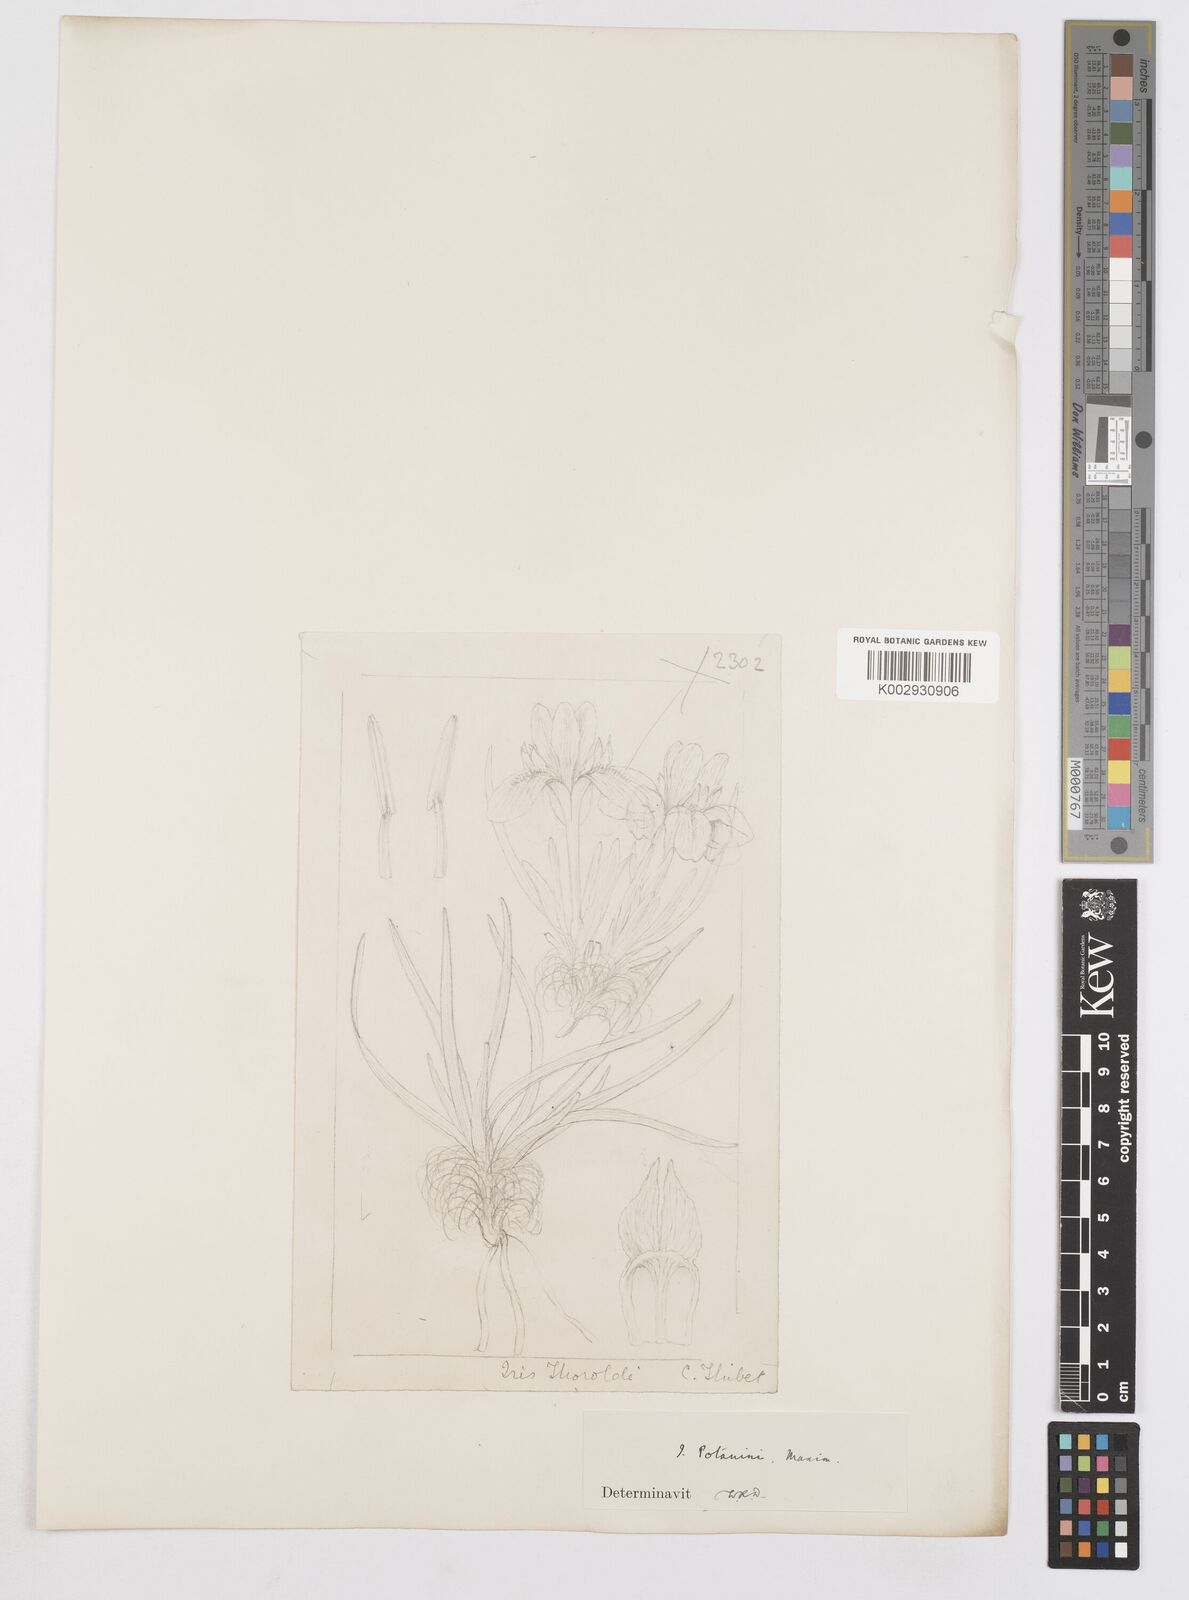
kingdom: Plantae
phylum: Tracheophyta
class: Liliopsida
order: Asparagales
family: Iridaceae
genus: Iris
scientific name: Iris potaninii
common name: Curl-sheath iris
